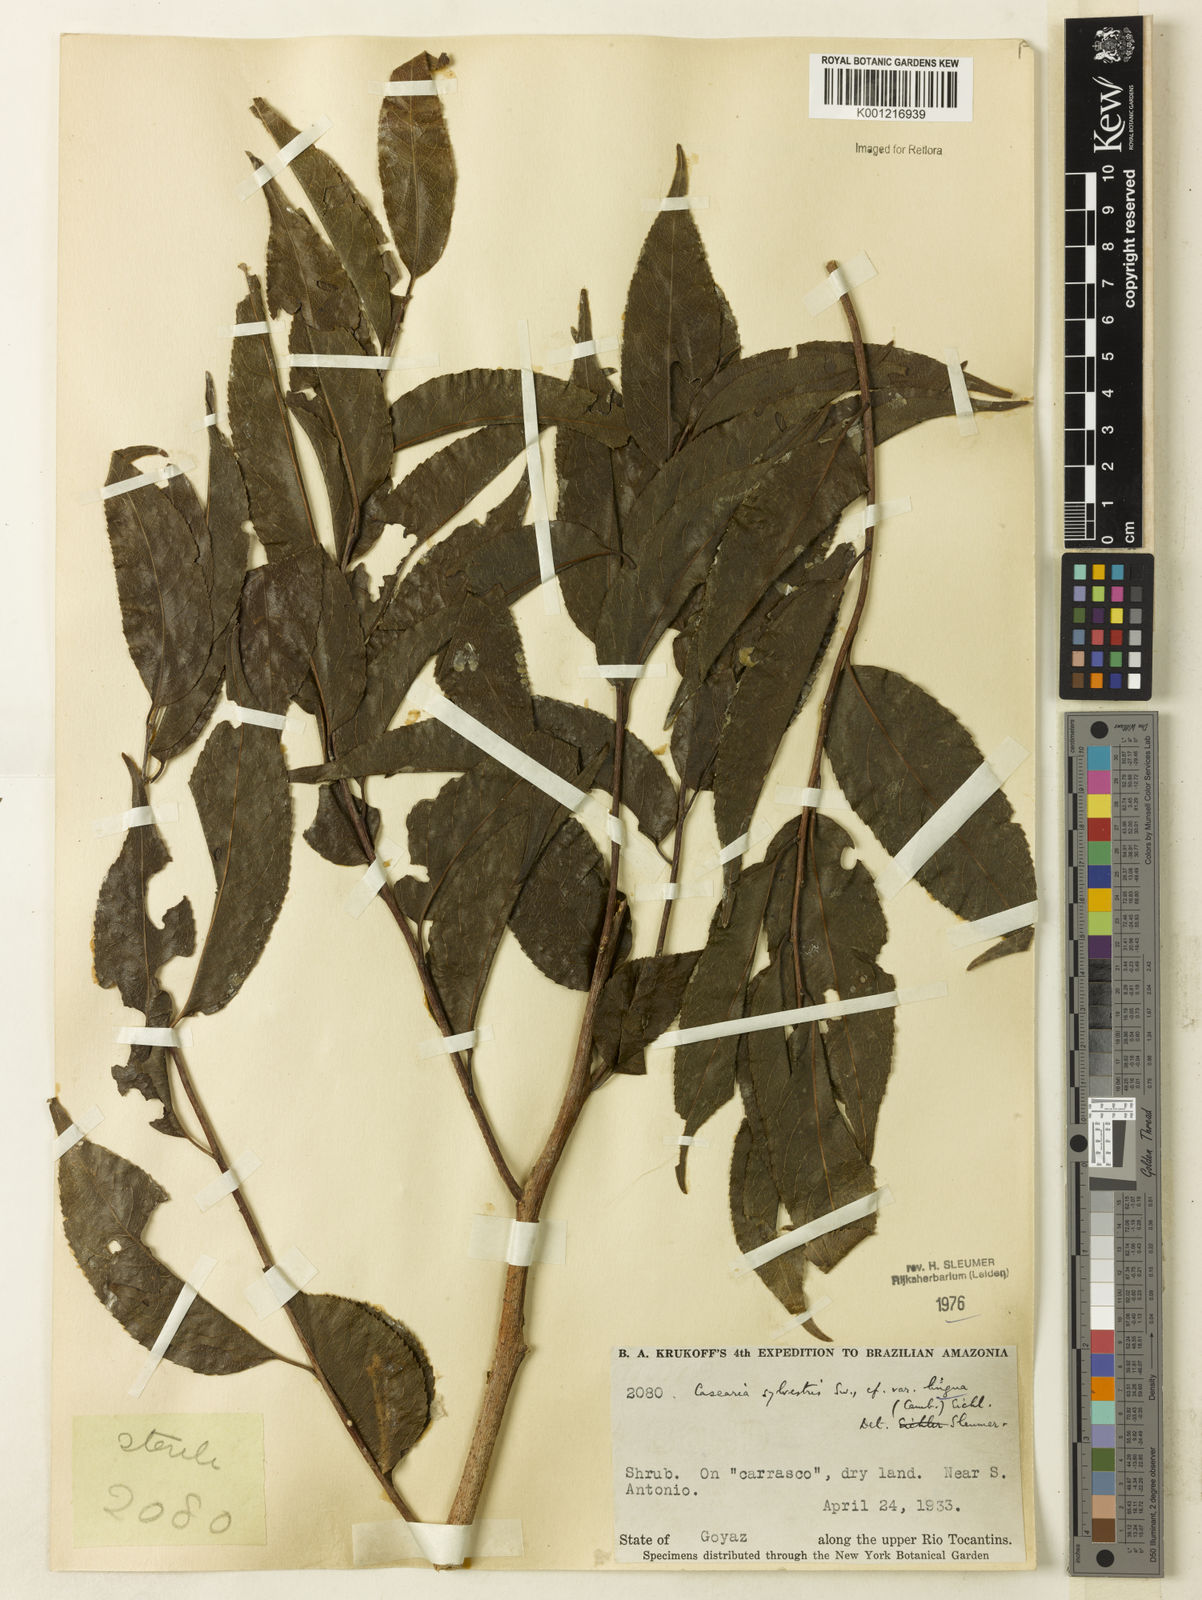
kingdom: Plantae
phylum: Tracheophyta
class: Magnoliopsida
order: Malpighiales
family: Salicaceae
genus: Casearia
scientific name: Casearia sylvestris
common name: Wild sage
